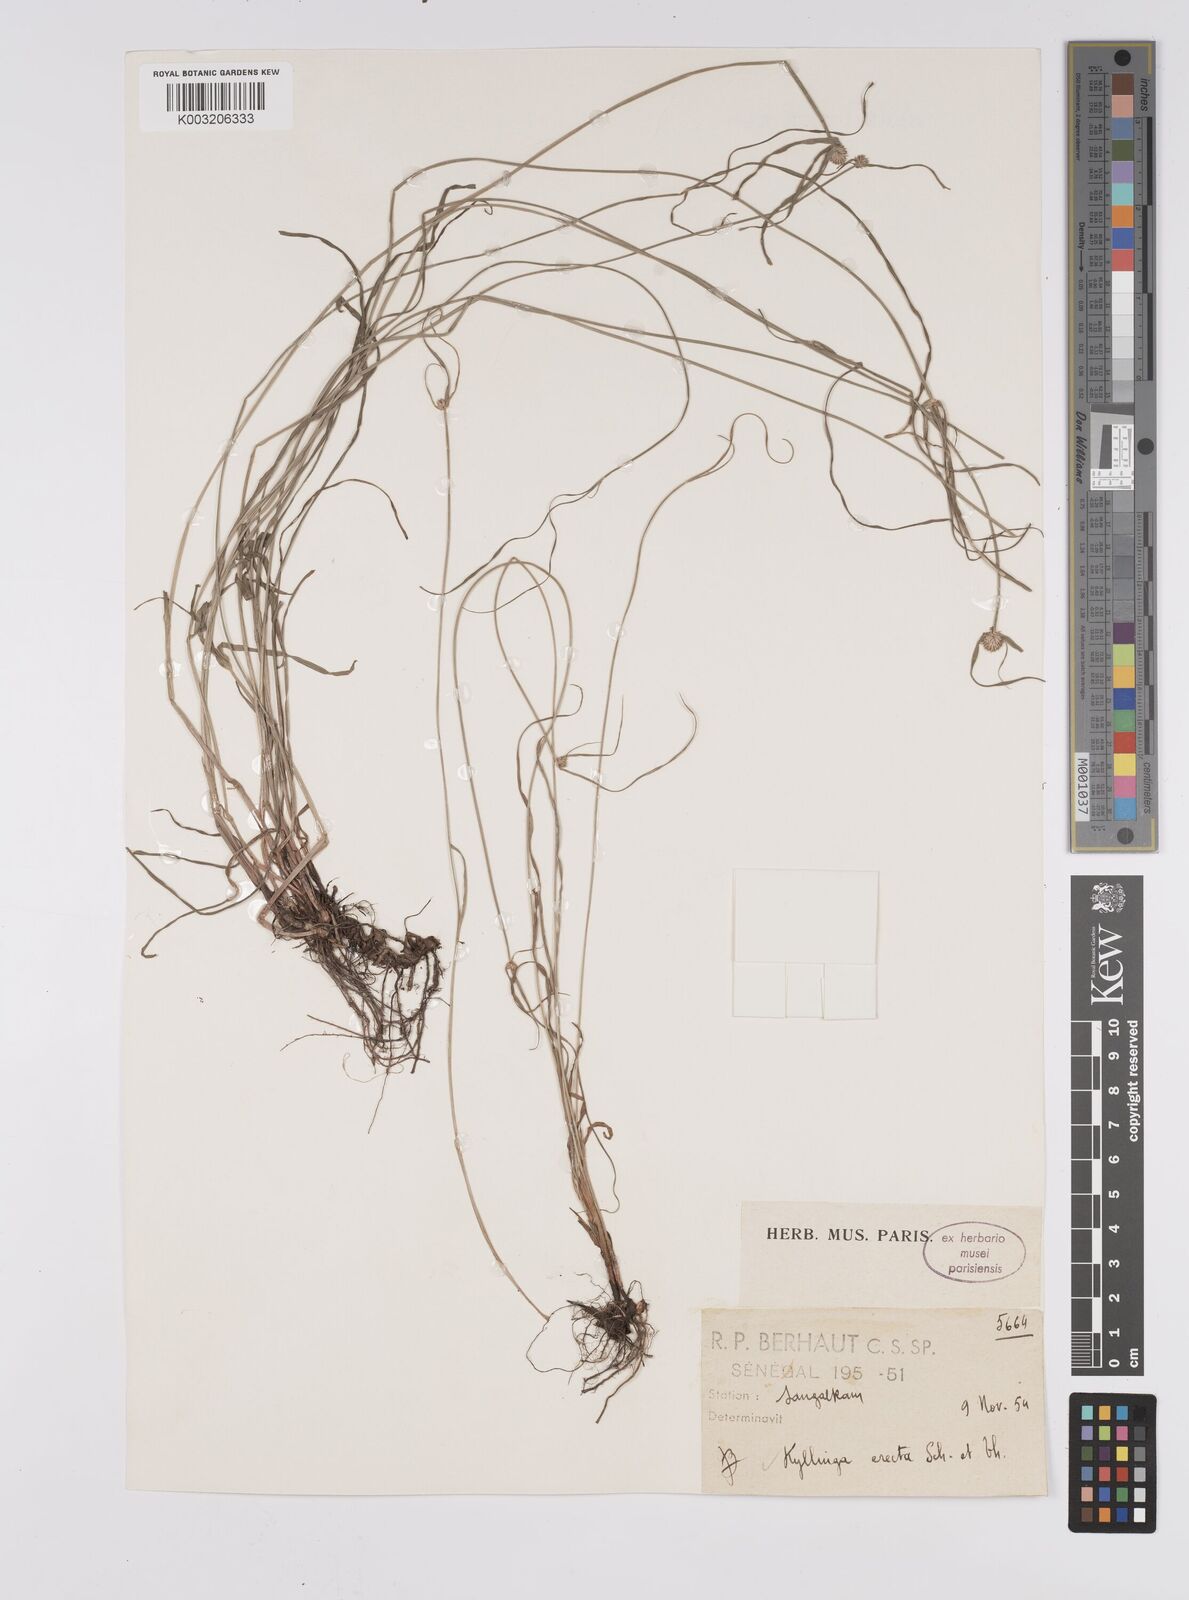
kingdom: Plantae
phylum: Tracheophyta
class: Liliopsida
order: Poales
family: Cyperaceae
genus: Cyperus
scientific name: Cyperus erectus
